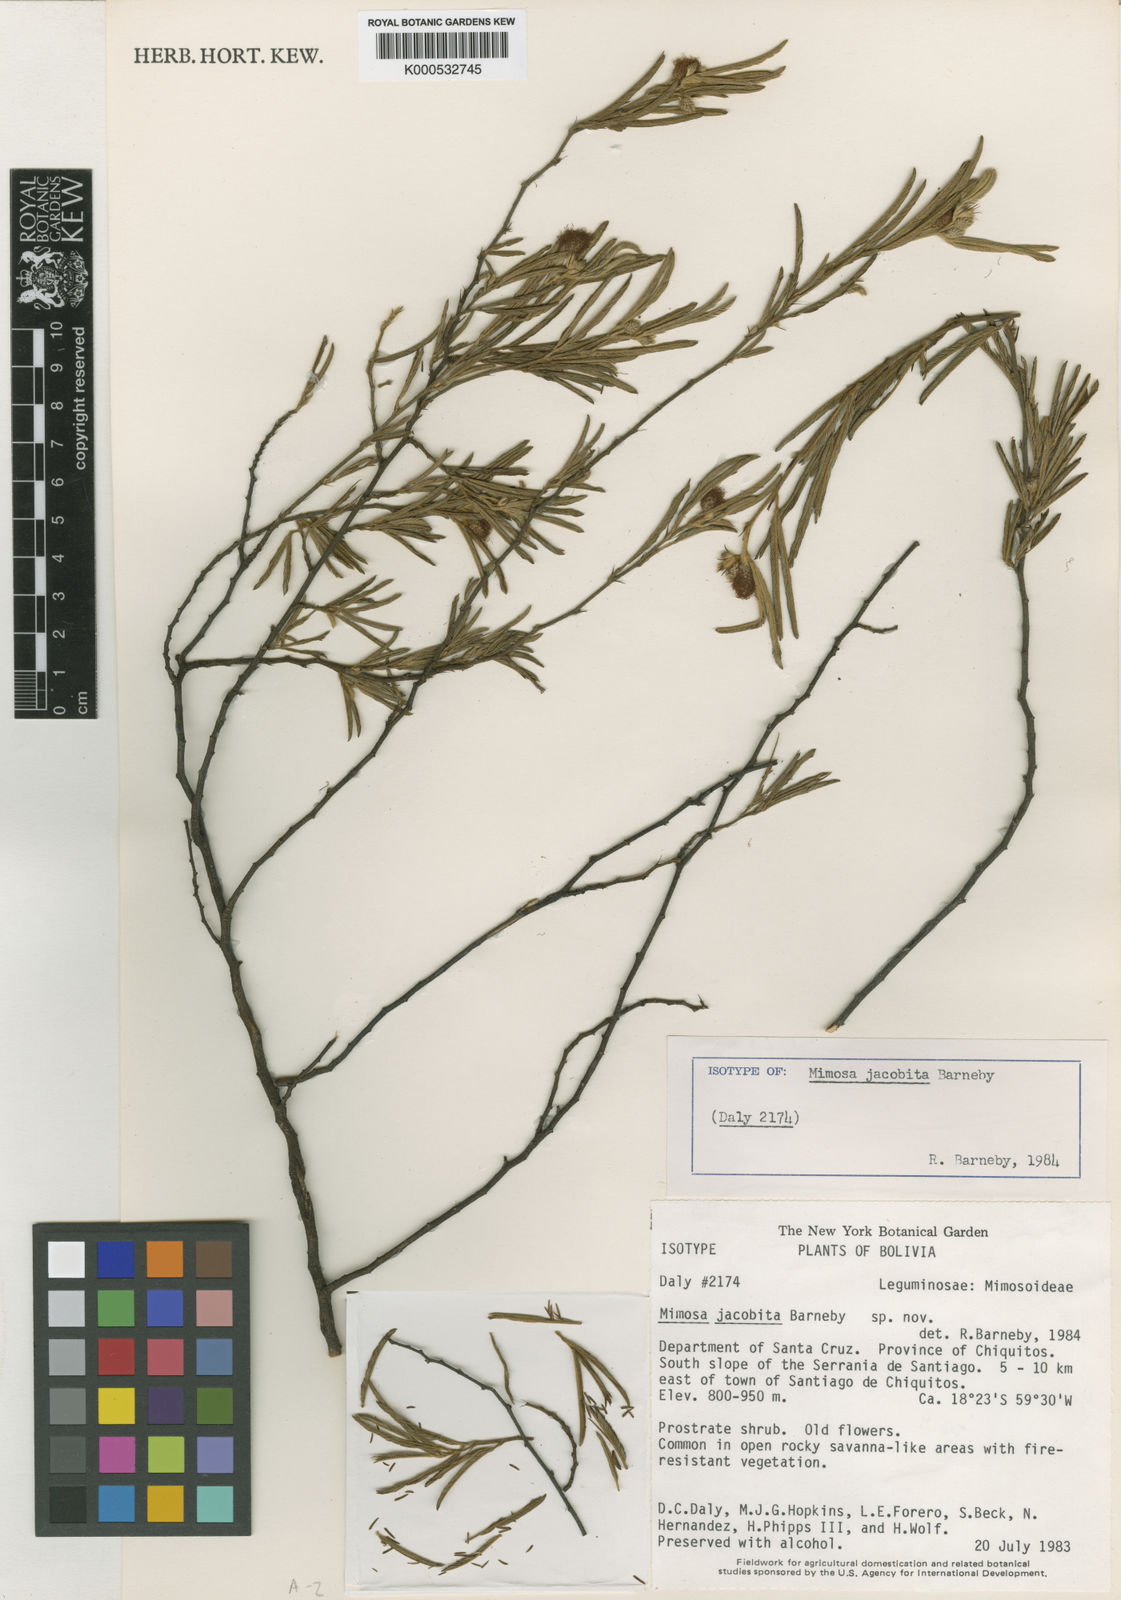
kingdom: Plantae
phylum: Tracheophyta
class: Magnoliopsida
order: Fabales
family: Fabaceae
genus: Mimosa
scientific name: Mimosa jacobita
